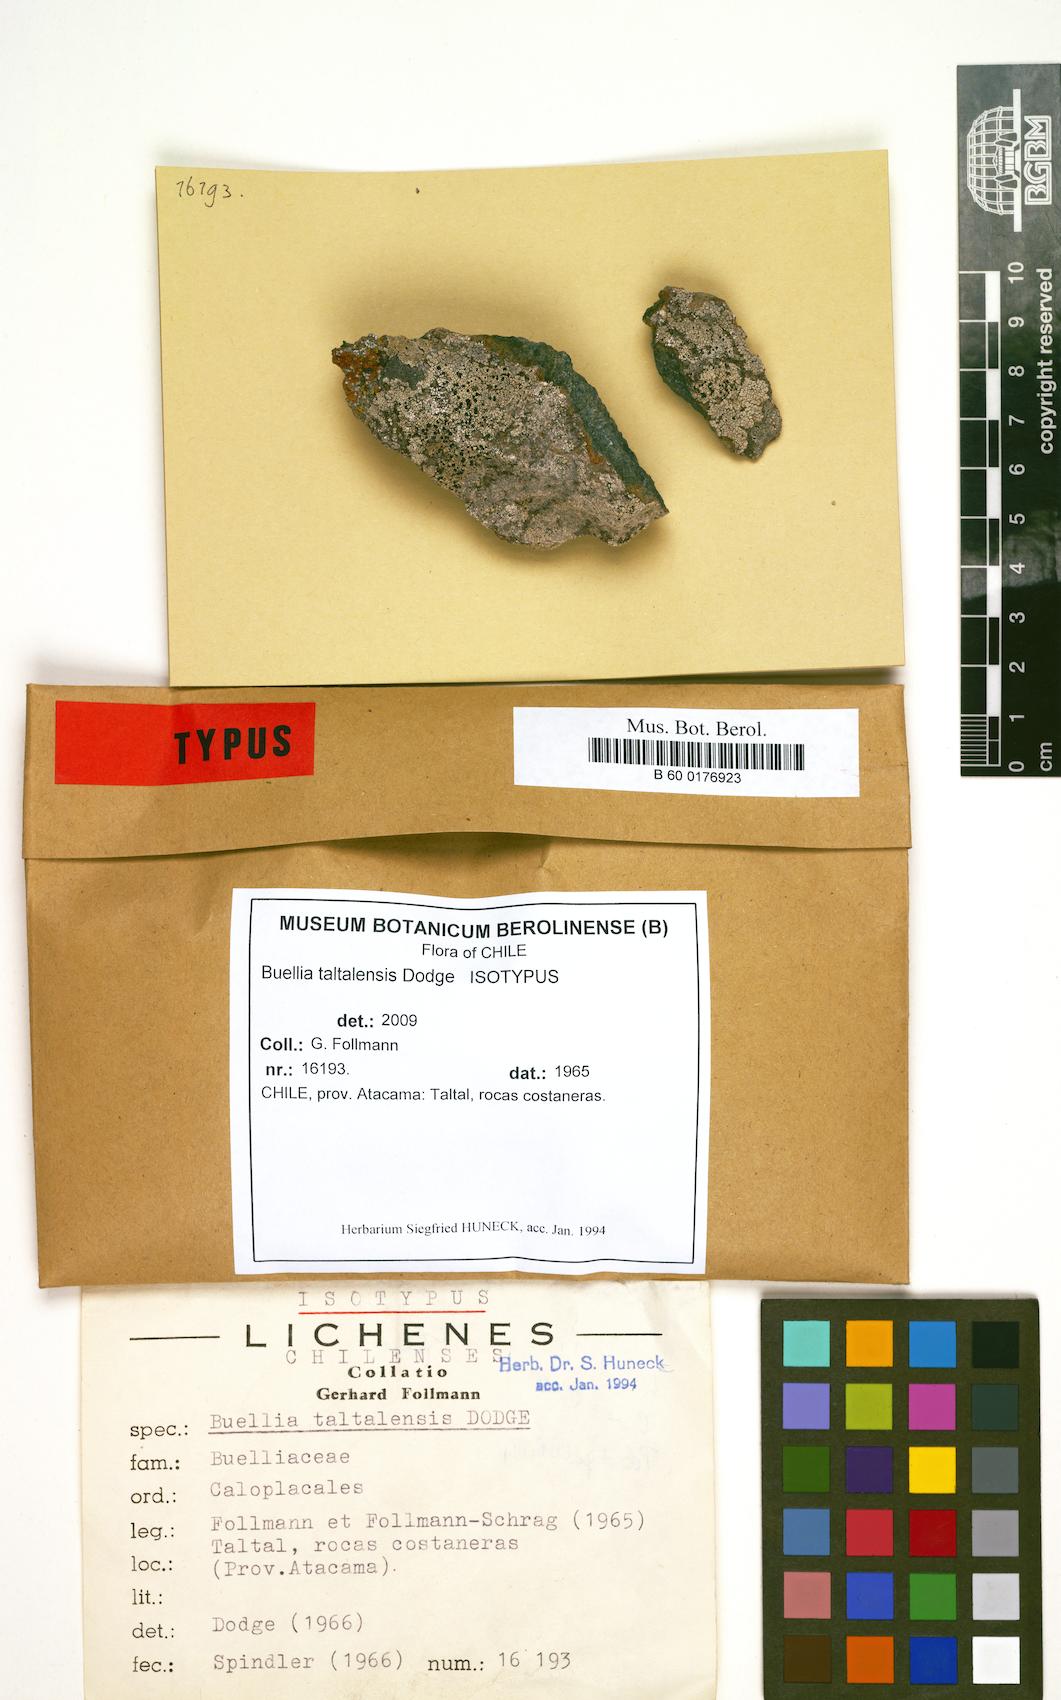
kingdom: Fungi
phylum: Ascomycota
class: Lecanoromycetes
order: Caliciales
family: Caliciaceae
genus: Buellia
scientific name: Buellia taltalensis
